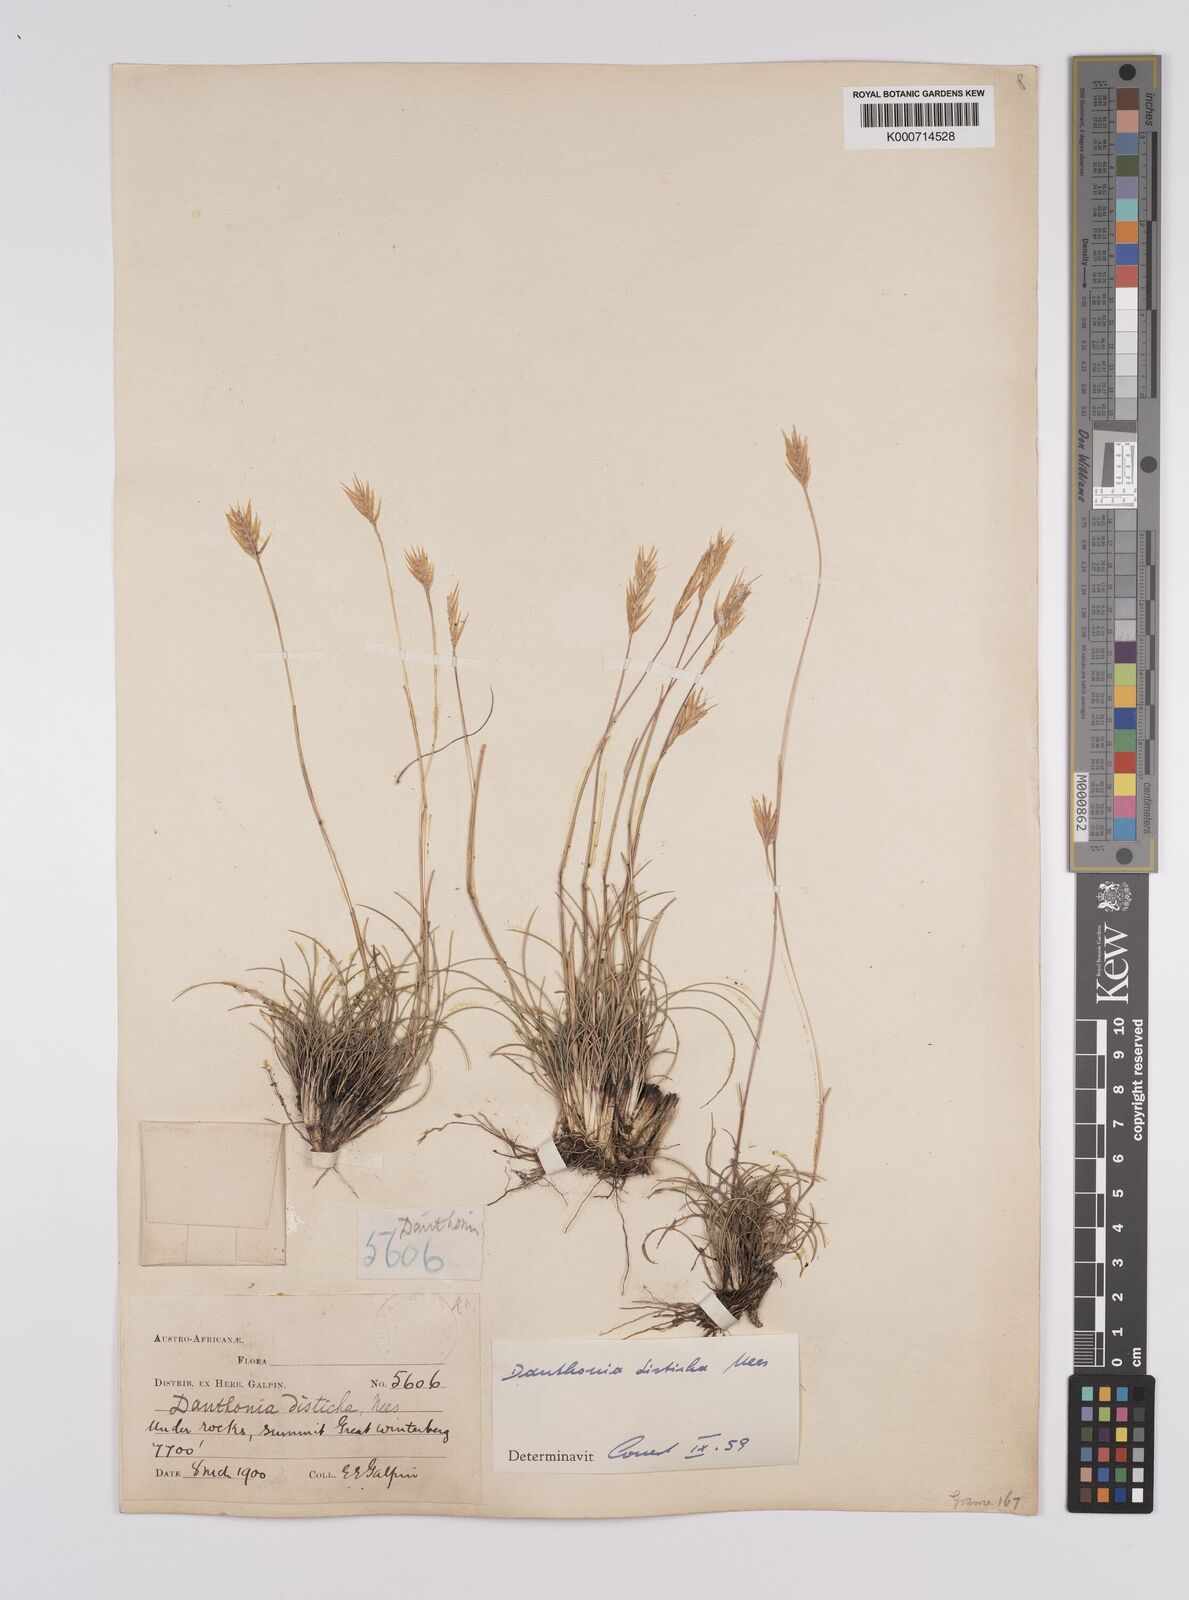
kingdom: Plantae
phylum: Tracheophyta
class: Liliopsida
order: Poales
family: Poaceae
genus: Tenaxia
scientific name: Tenaxia disticha
